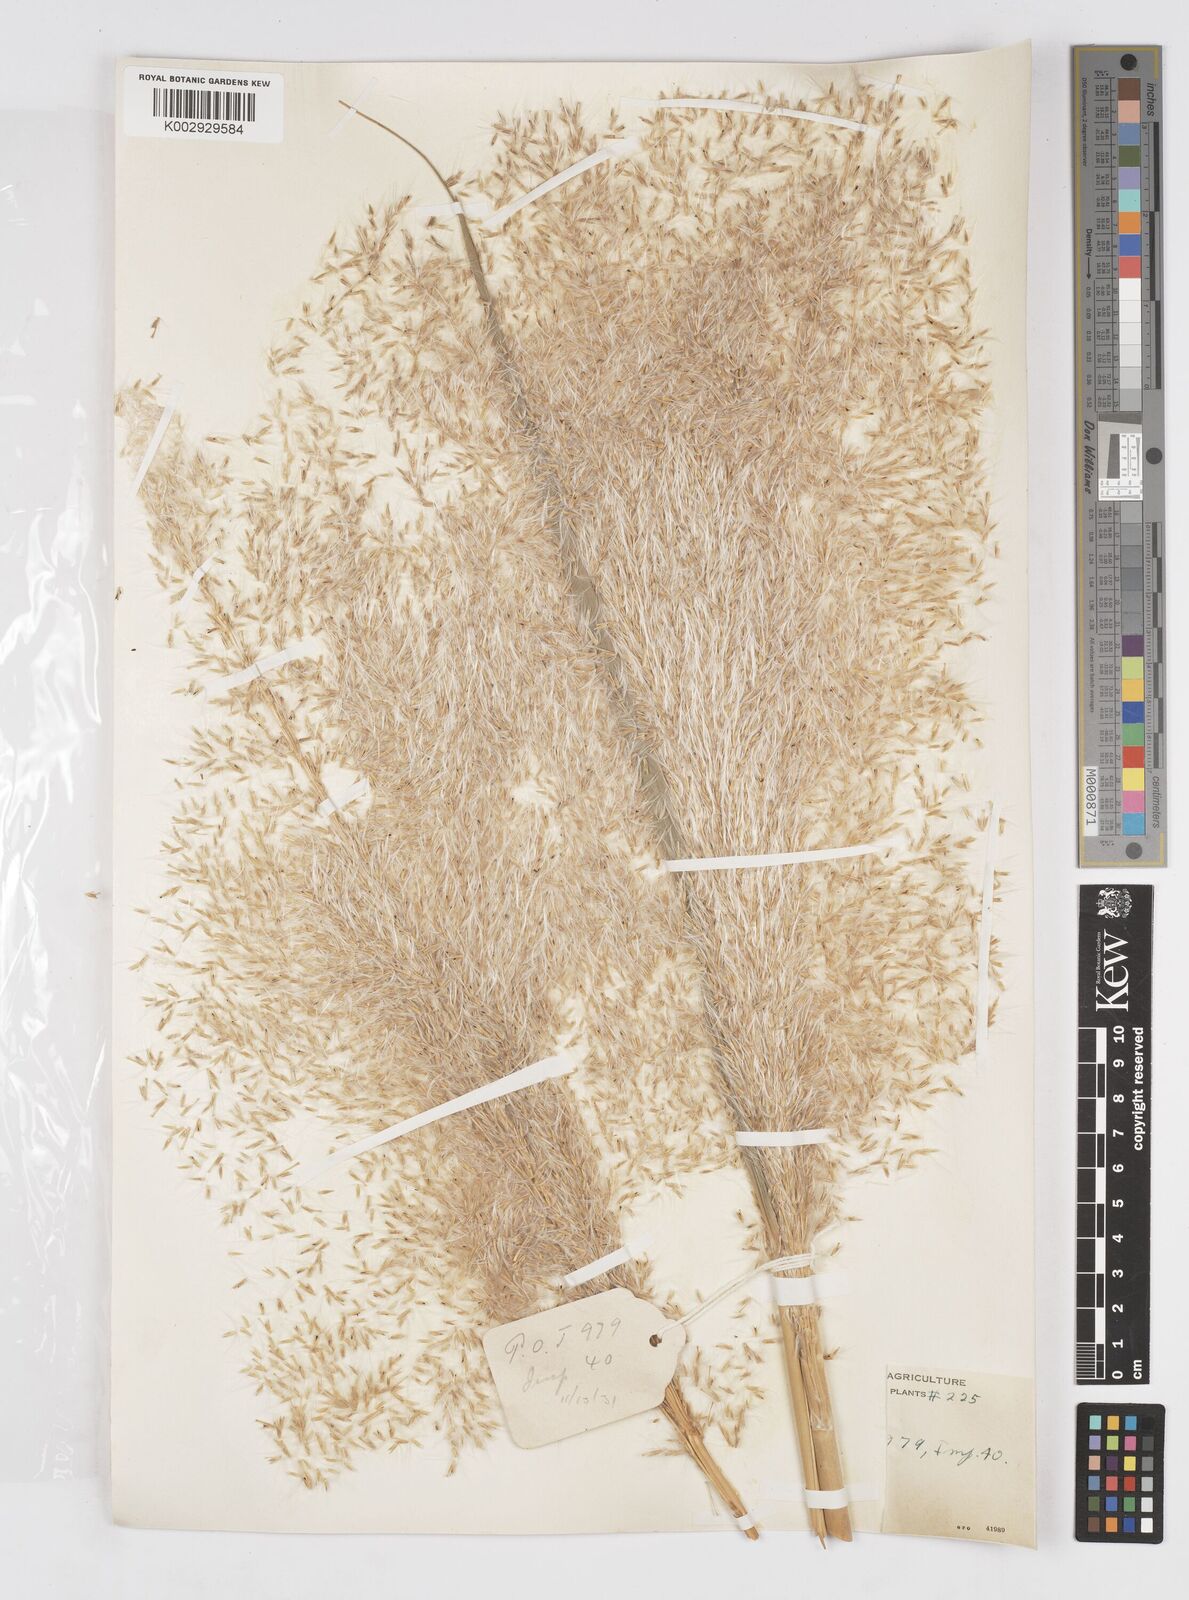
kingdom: Plantae
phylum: Tracheophyta
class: Liliopsida
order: Poales
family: Poaceae
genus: Saccharum
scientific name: Saccharum officinarum
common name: Sugarcane
